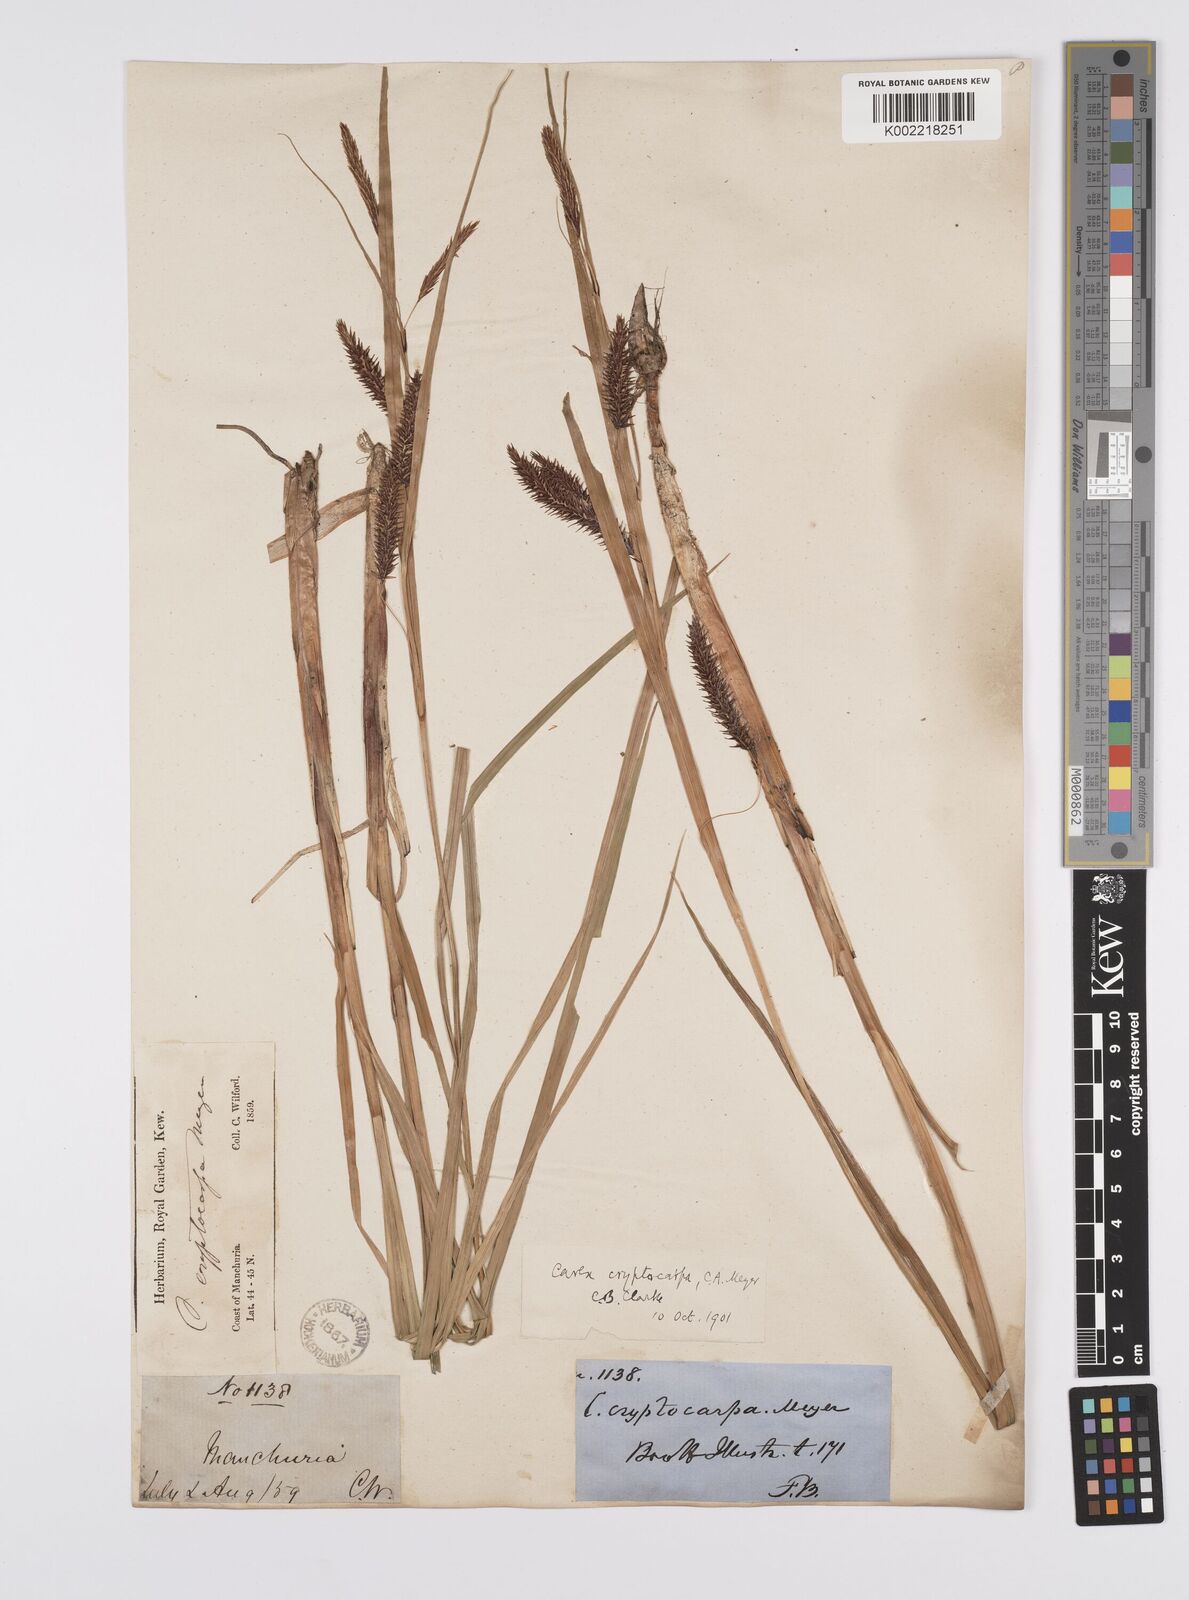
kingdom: Plantae
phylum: Tracheophyta
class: Liliopsida
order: Poales
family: Cyperaceae
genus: Carex
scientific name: Carex lyngbyei
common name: Lyngbye's sedge
